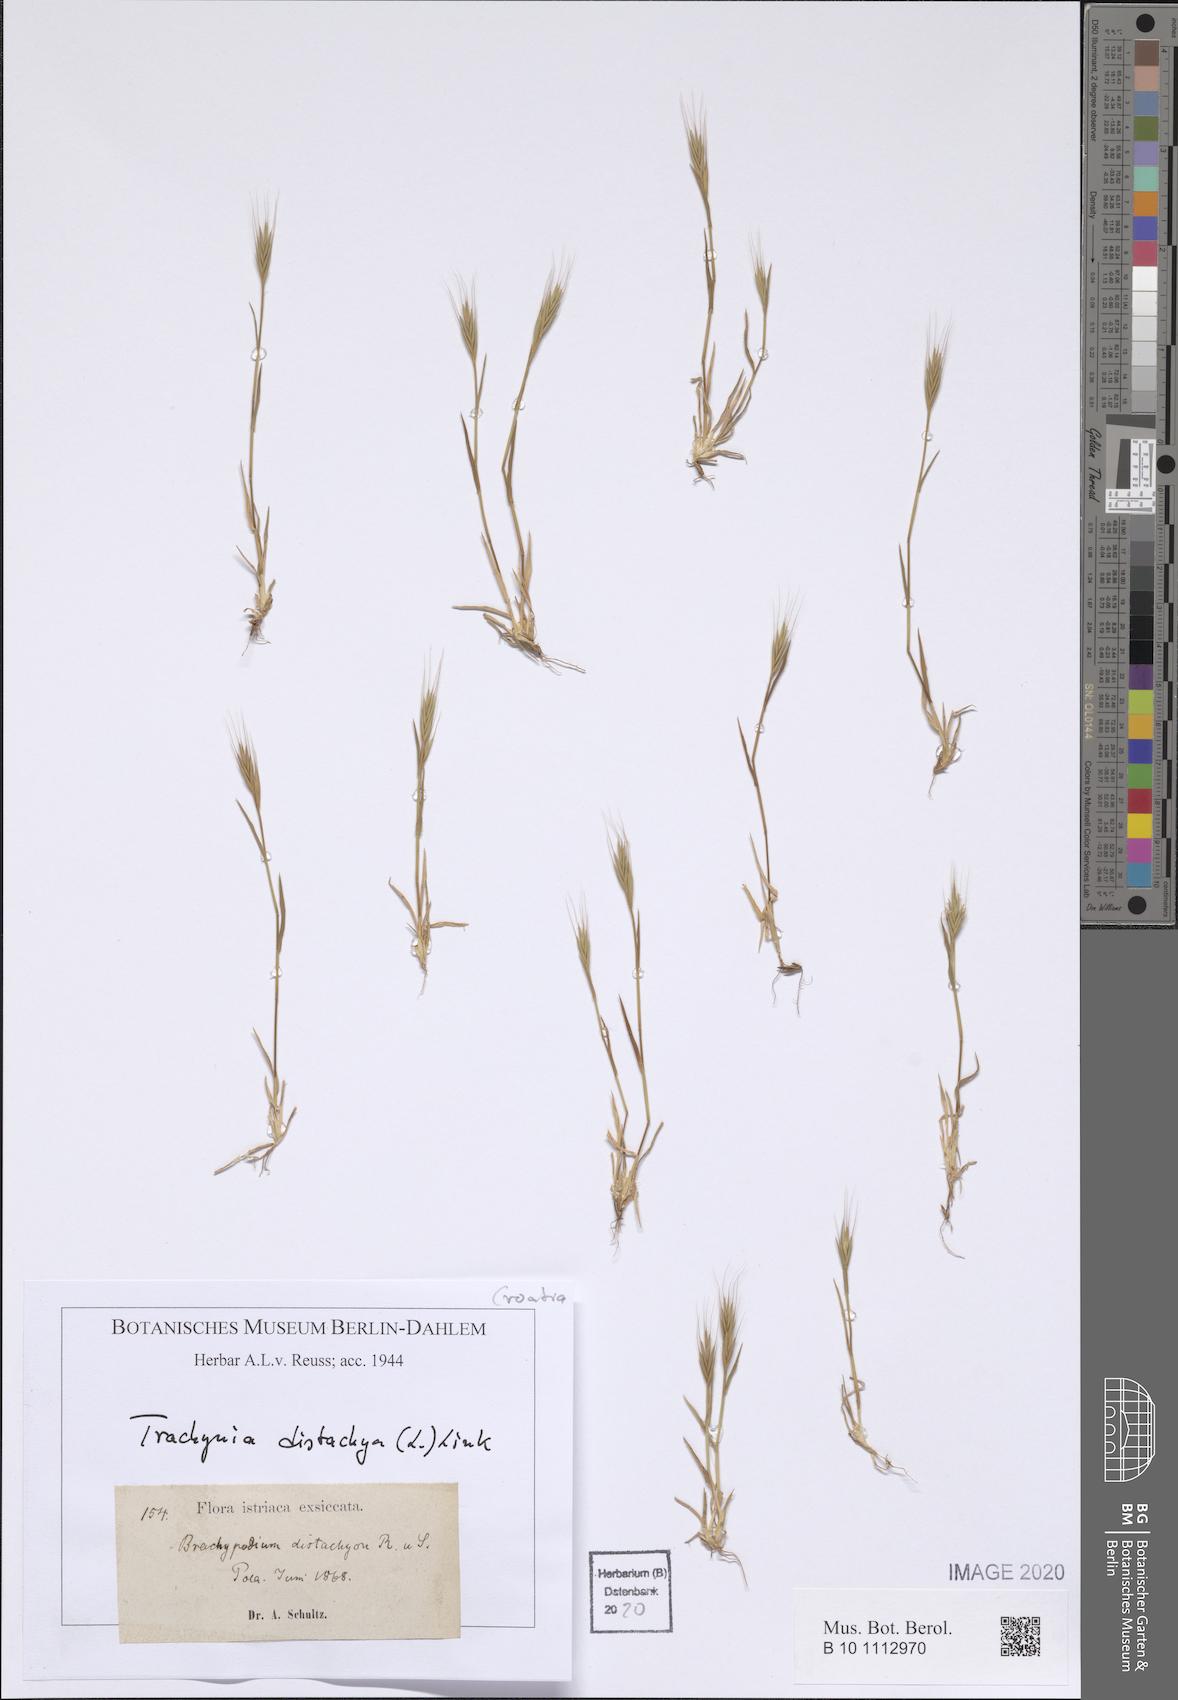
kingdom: Plantae
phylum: Tracheophyta
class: Liliopsida
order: Poales
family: Poaceae
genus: Brachypodium
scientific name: Brachypodium distachyon
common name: Stiff brome
